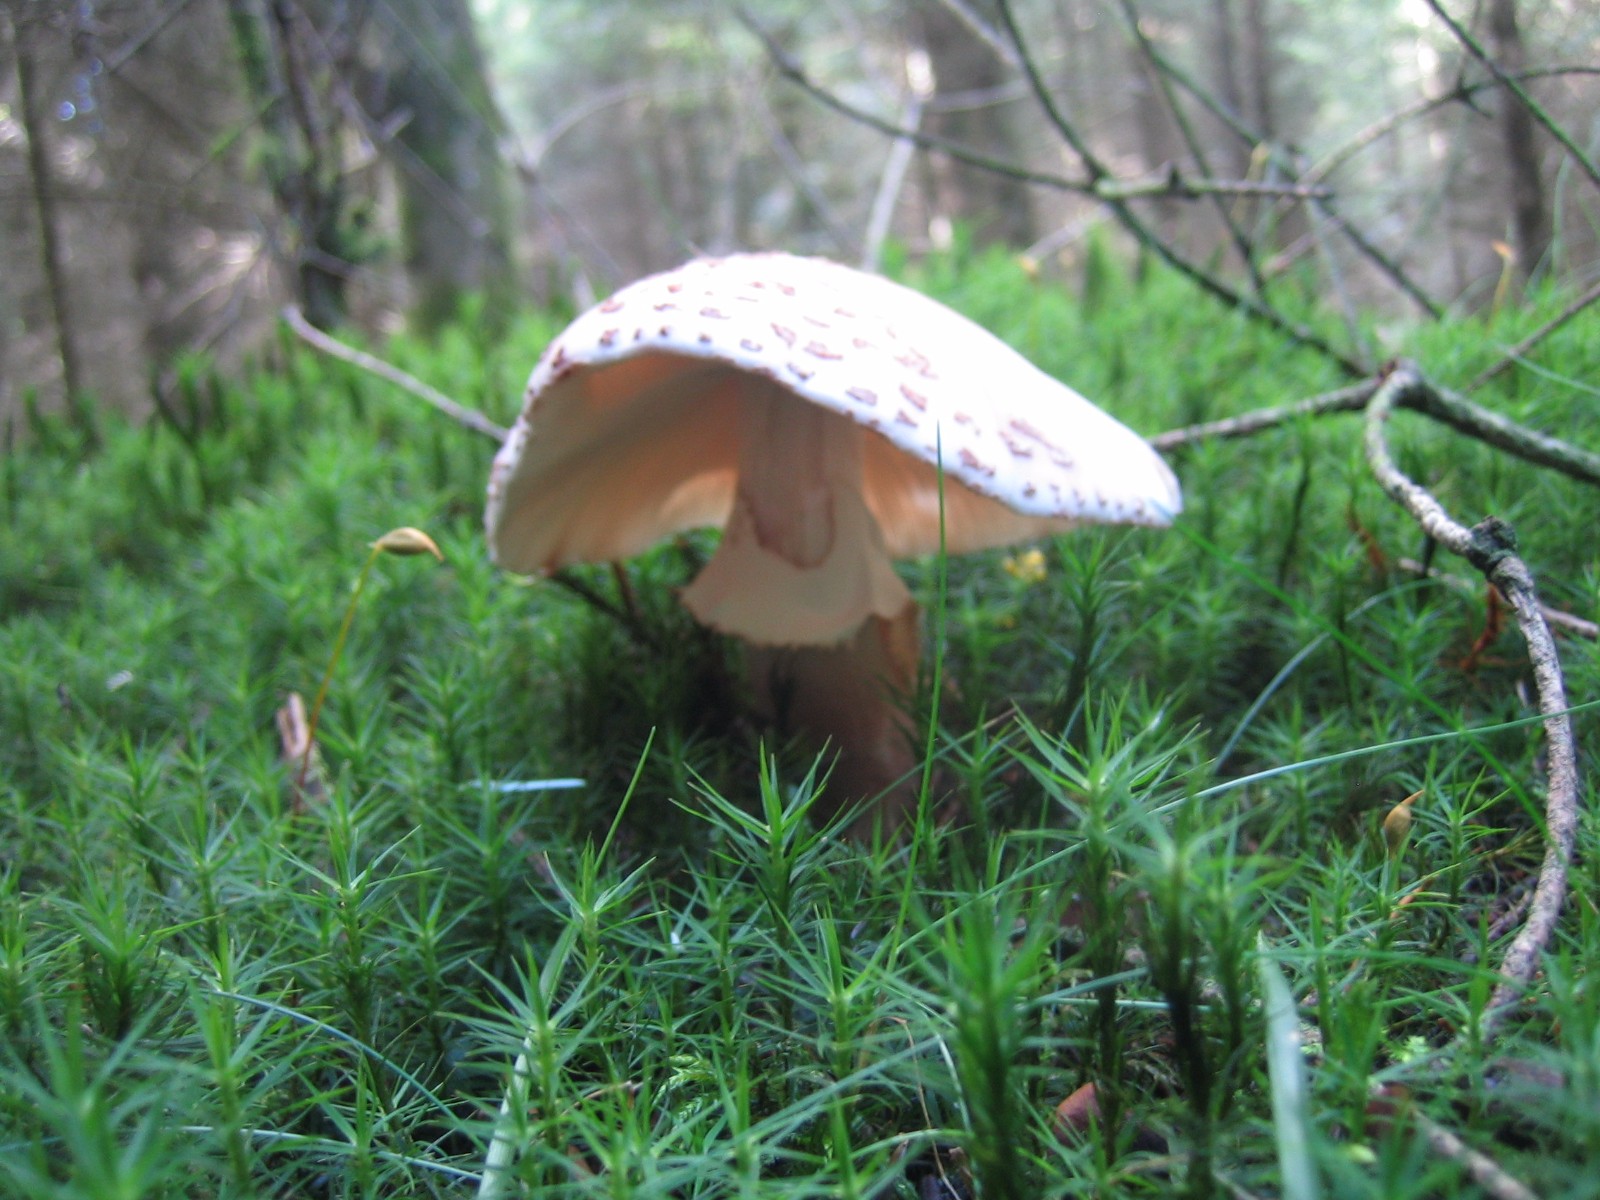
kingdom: Fungi
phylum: Basidiomycota
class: Agaricomycetes
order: Agaricales
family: Amanitaceae
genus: Amanita
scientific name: Amanita rubescens
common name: rødmende fluesvamp
